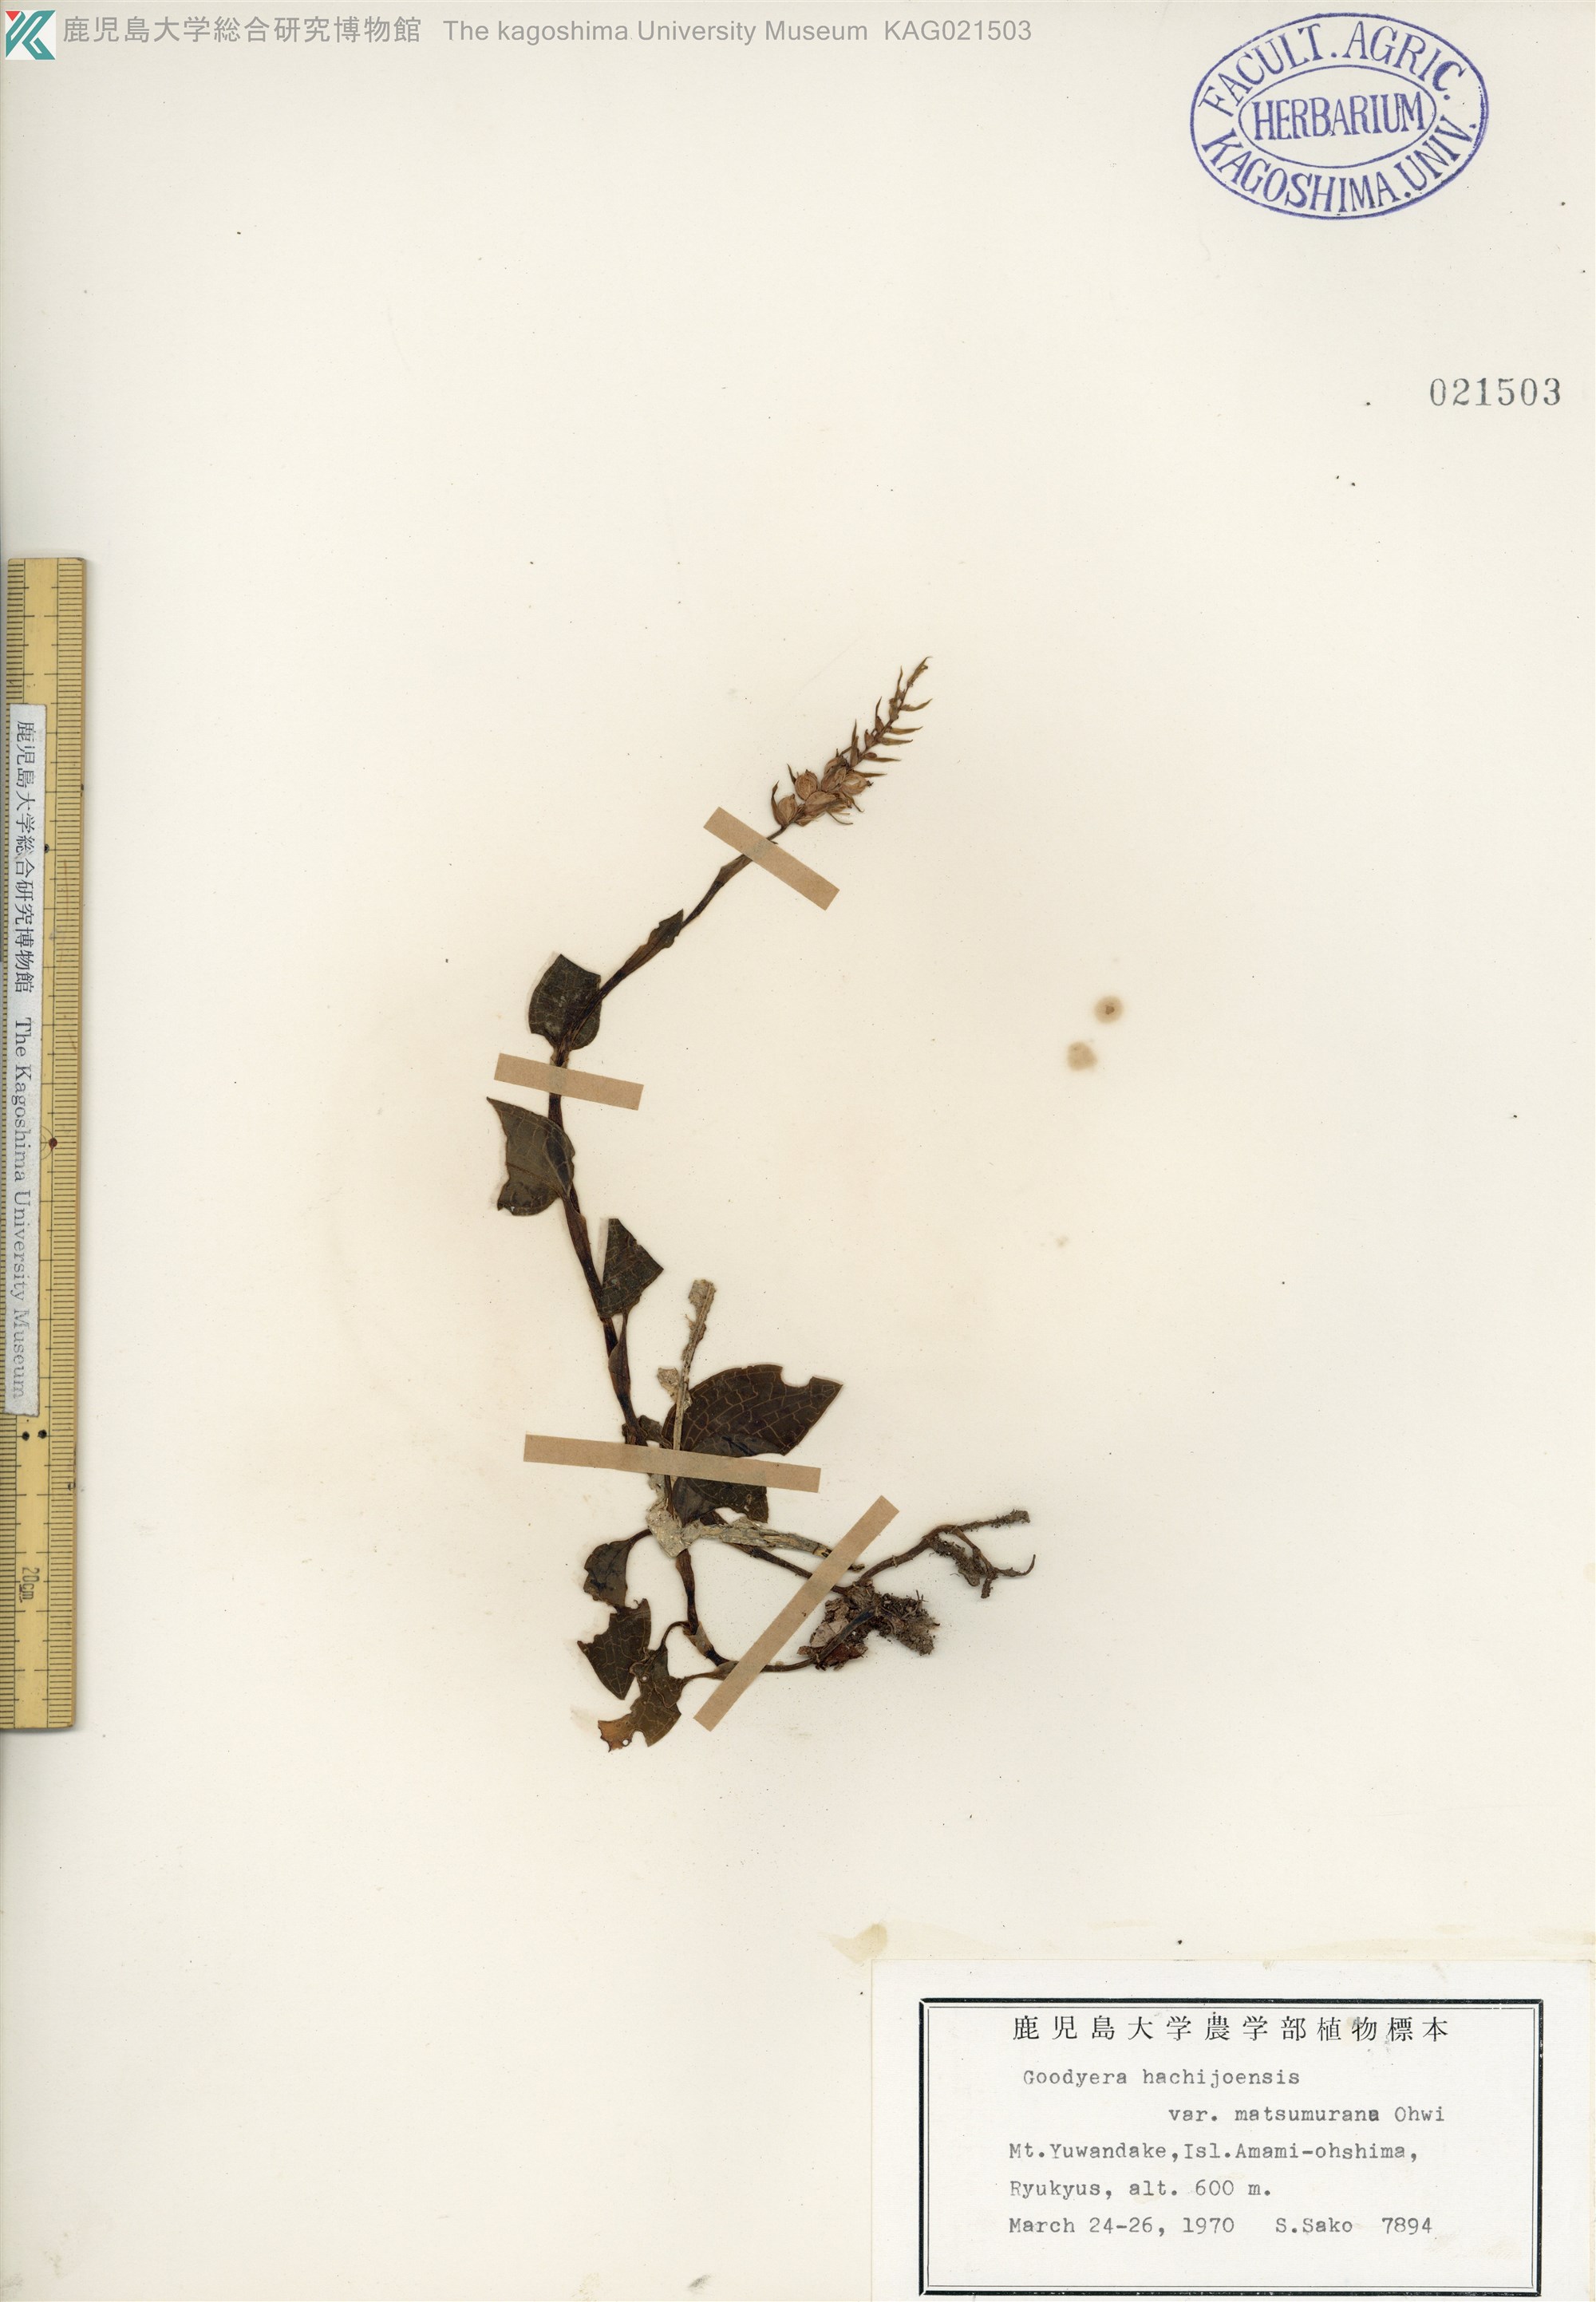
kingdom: Plantae
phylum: Tracheophyta
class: Liliopsida
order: Asparagales
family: Orchidaceae
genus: Goodyera
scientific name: Goodyera hachijoensis
